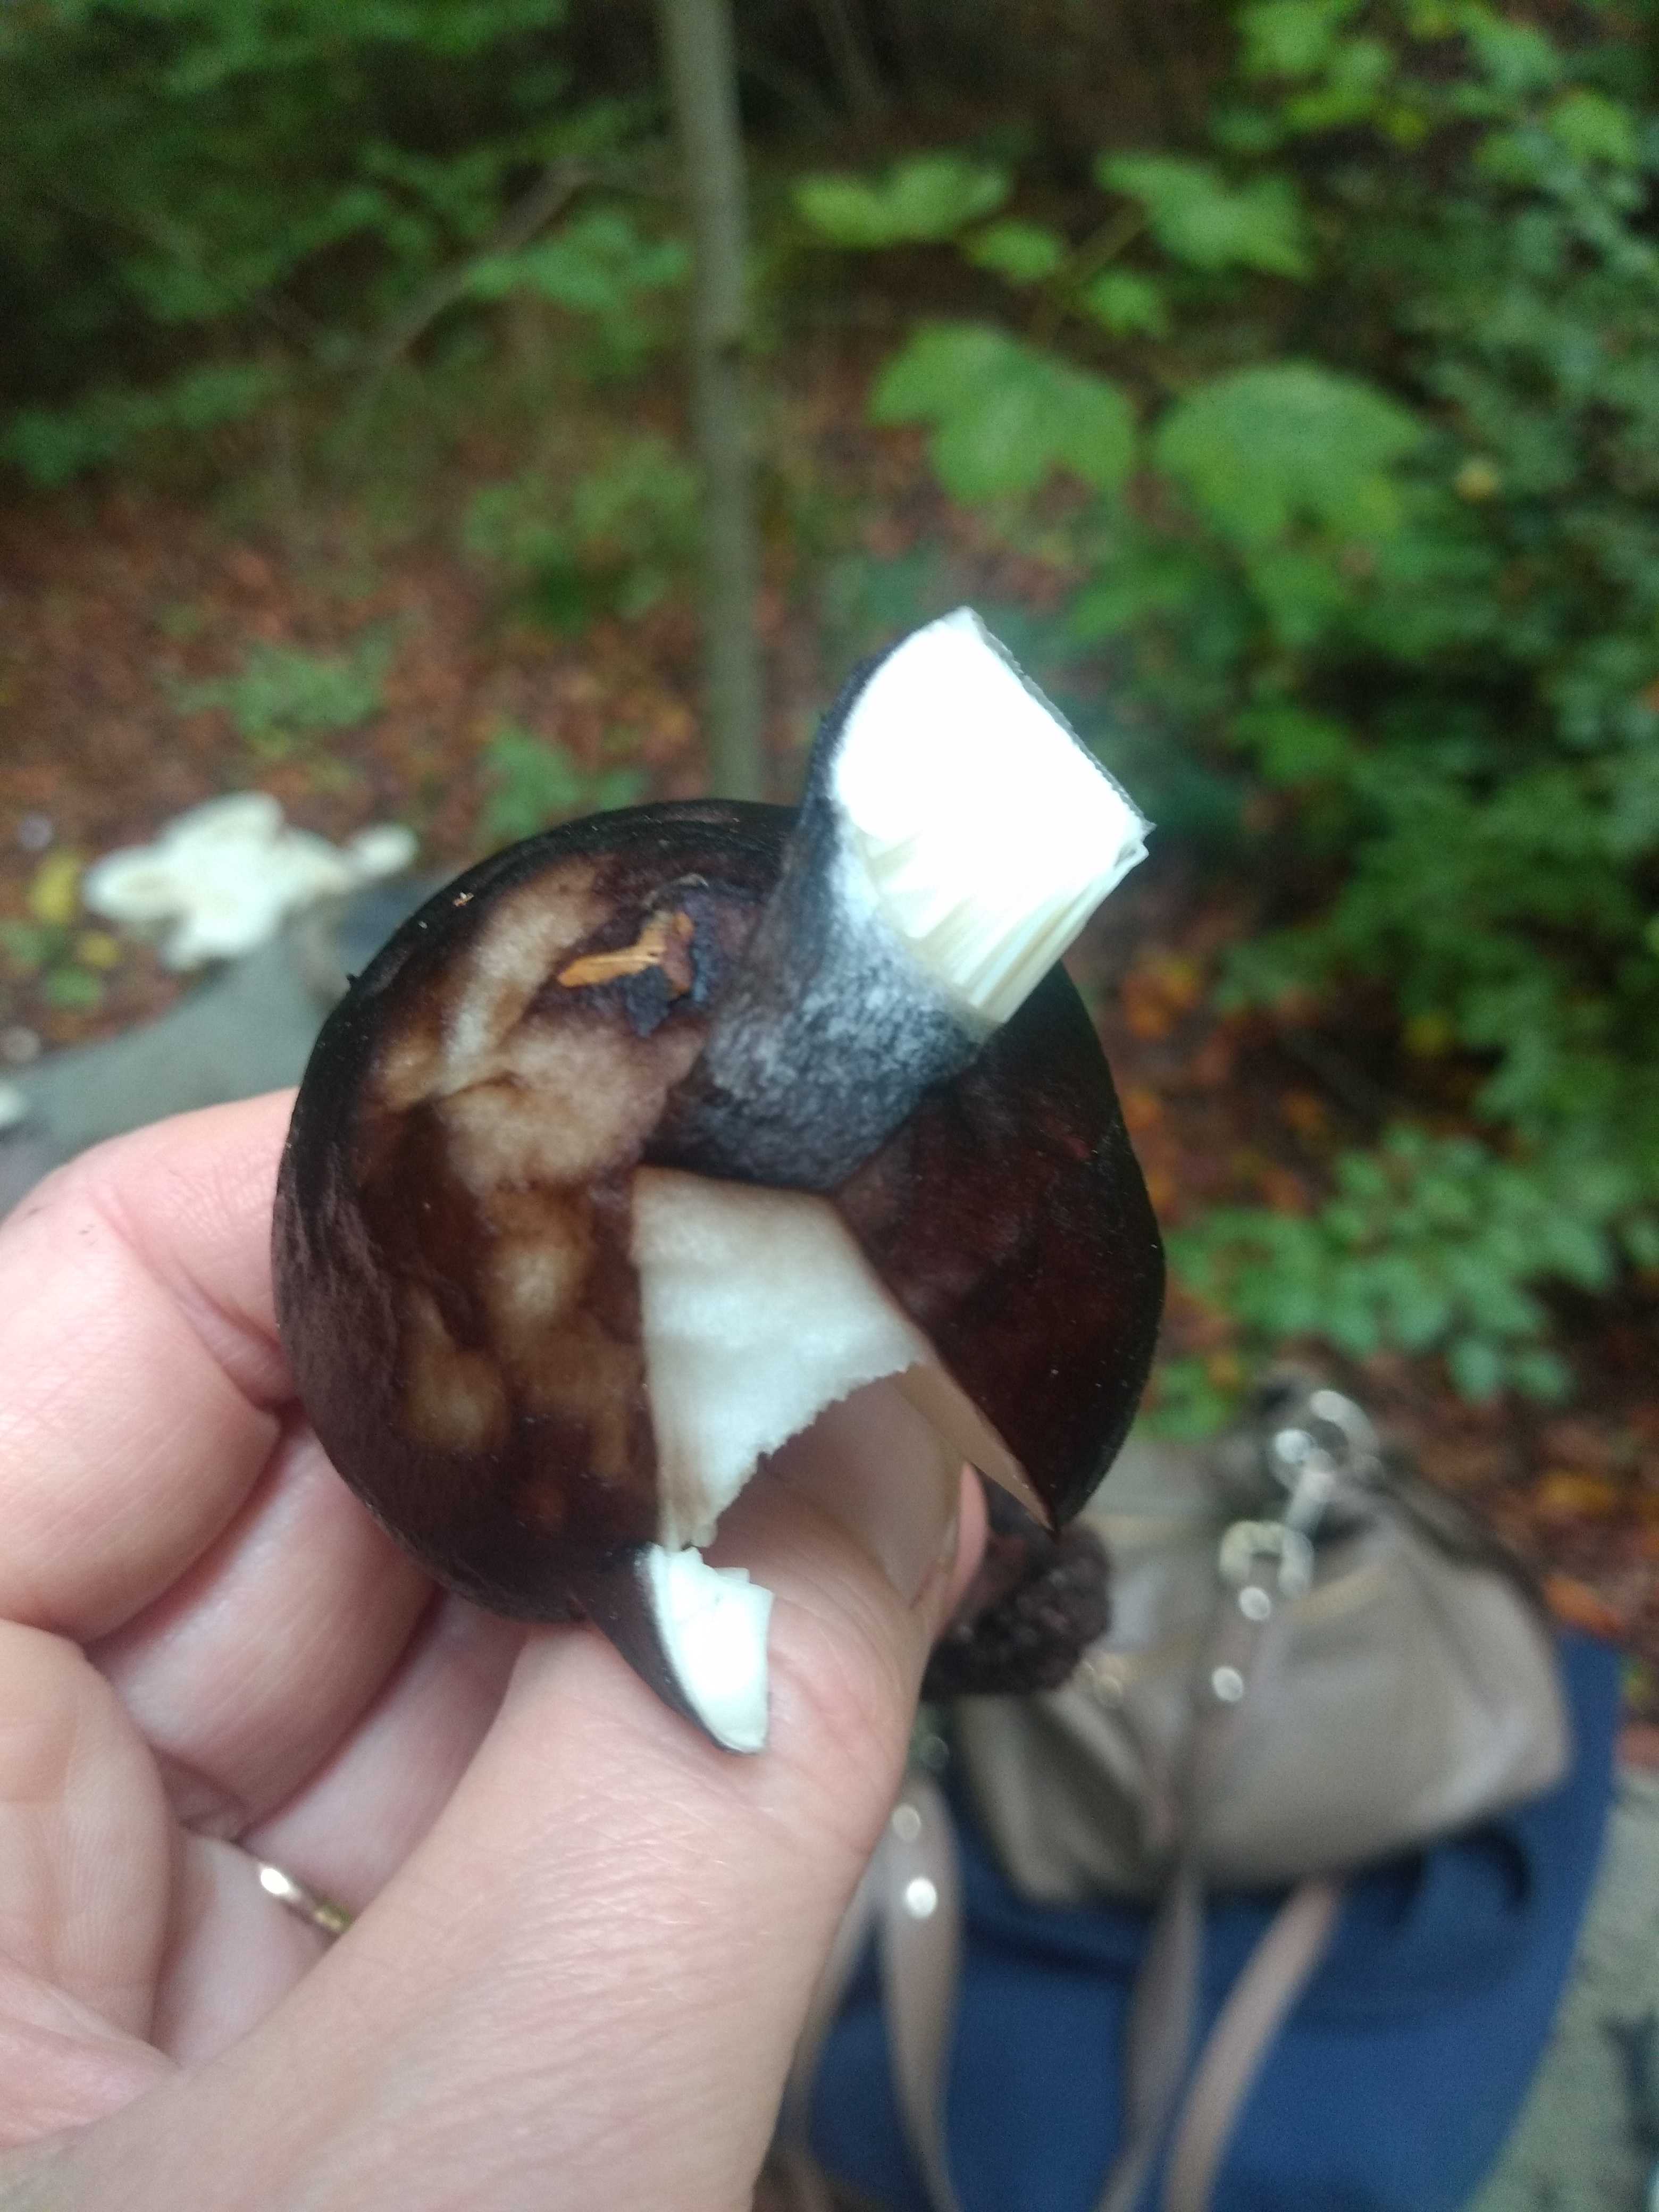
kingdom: Fungi
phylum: Basidiomycota
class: Agaricomycetes
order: Agaricales
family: Pluteaceae
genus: Pluteus
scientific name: Pluteus cervinus
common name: sodfarvet skærmhat
